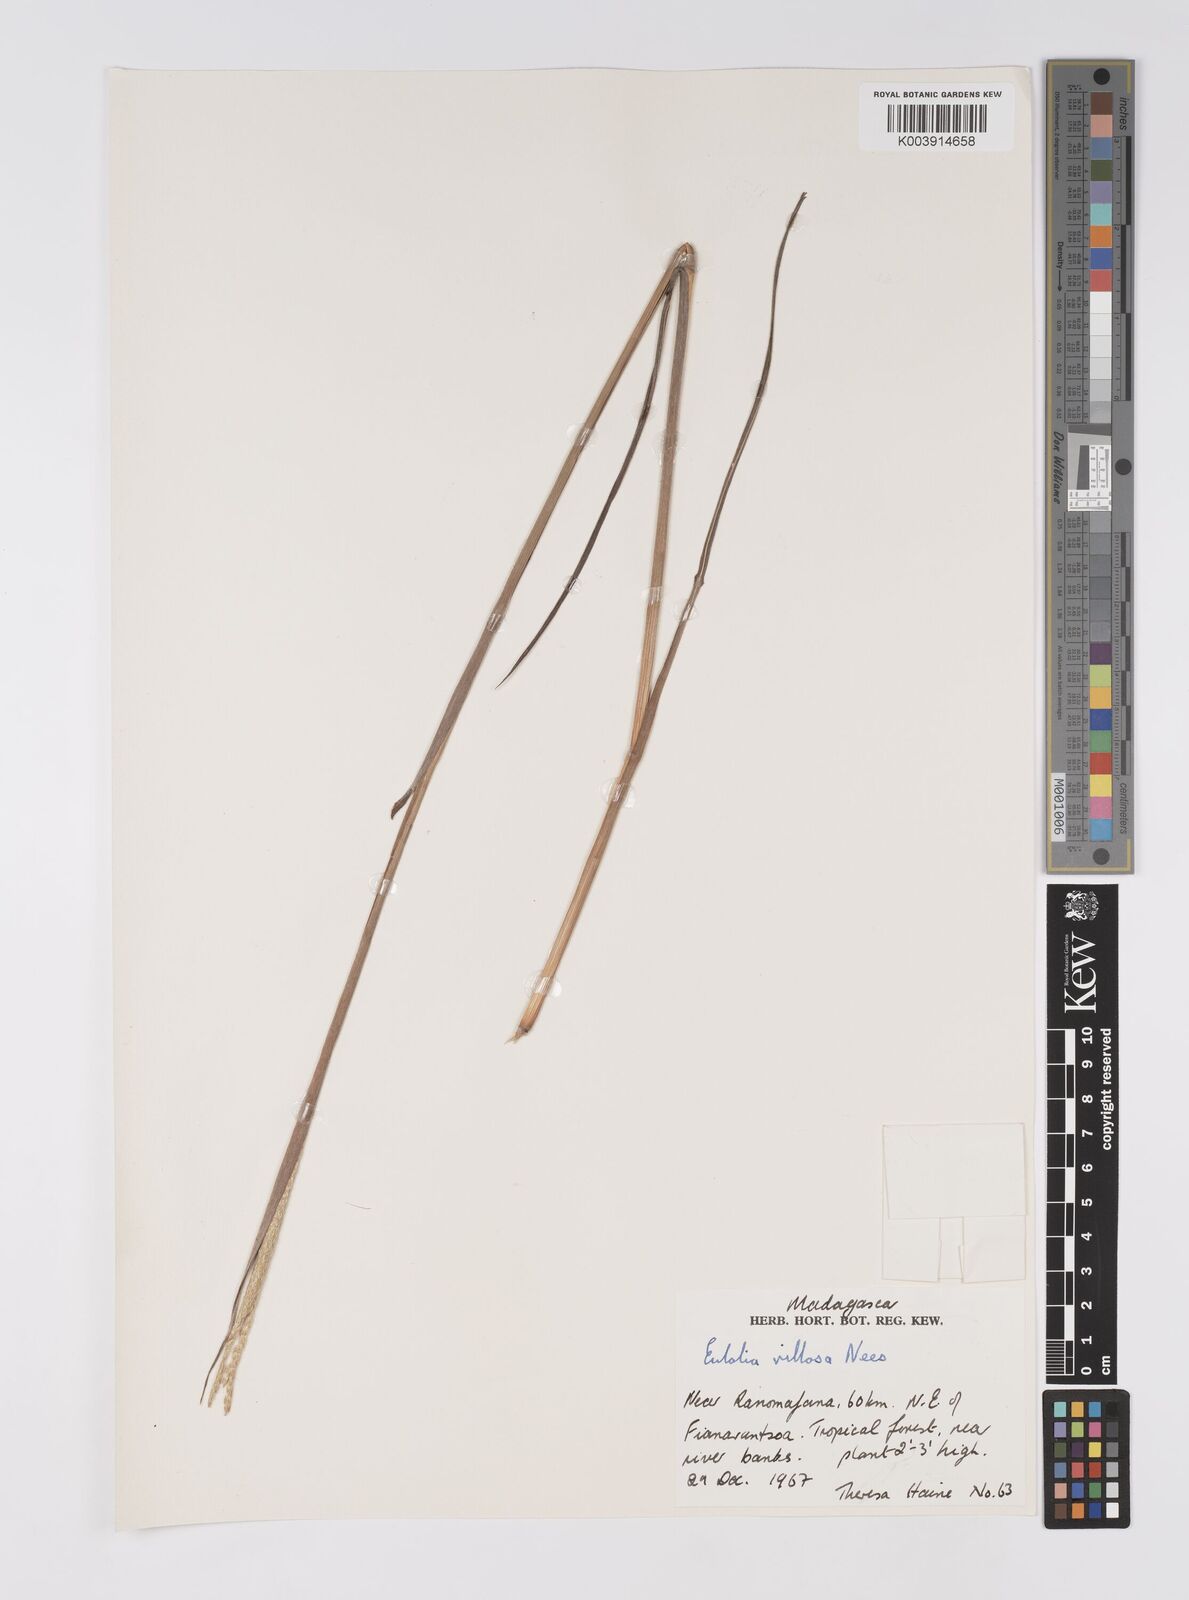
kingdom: Plantae
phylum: Tracheophyta
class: Liliopsida
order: Poales
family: Poaceae
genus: Eulalia
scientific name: Eulalia villosa
